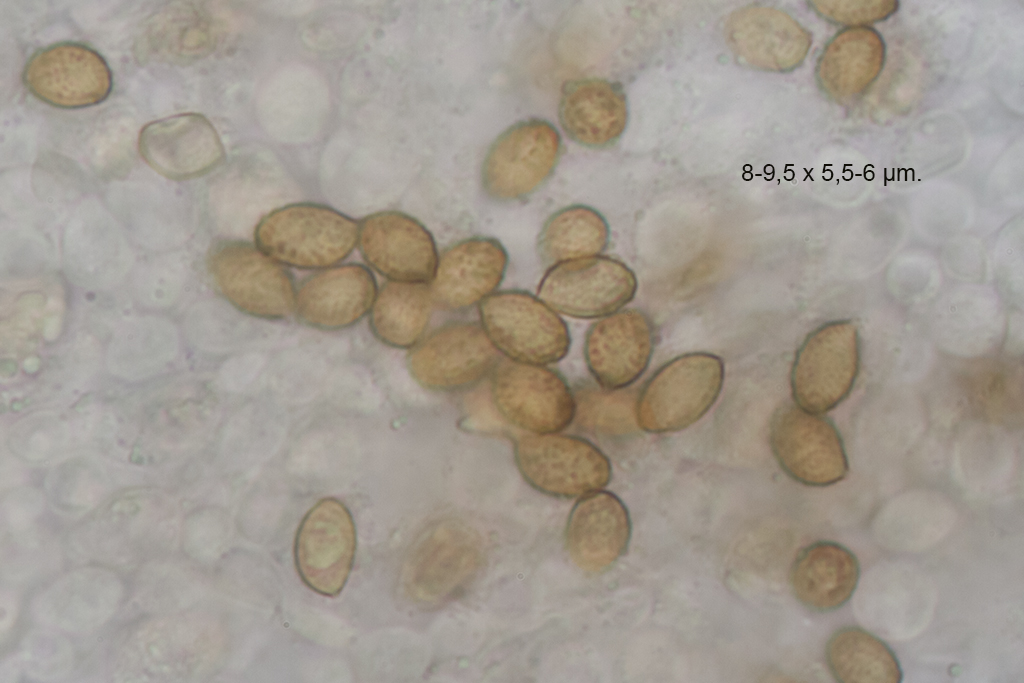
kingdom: Fungi
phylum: Basidiomycota
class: Agaricomycetes
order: Agaricales
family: Cortinariaceae
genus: Cortinarius
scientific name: Cortinarius uxorum
